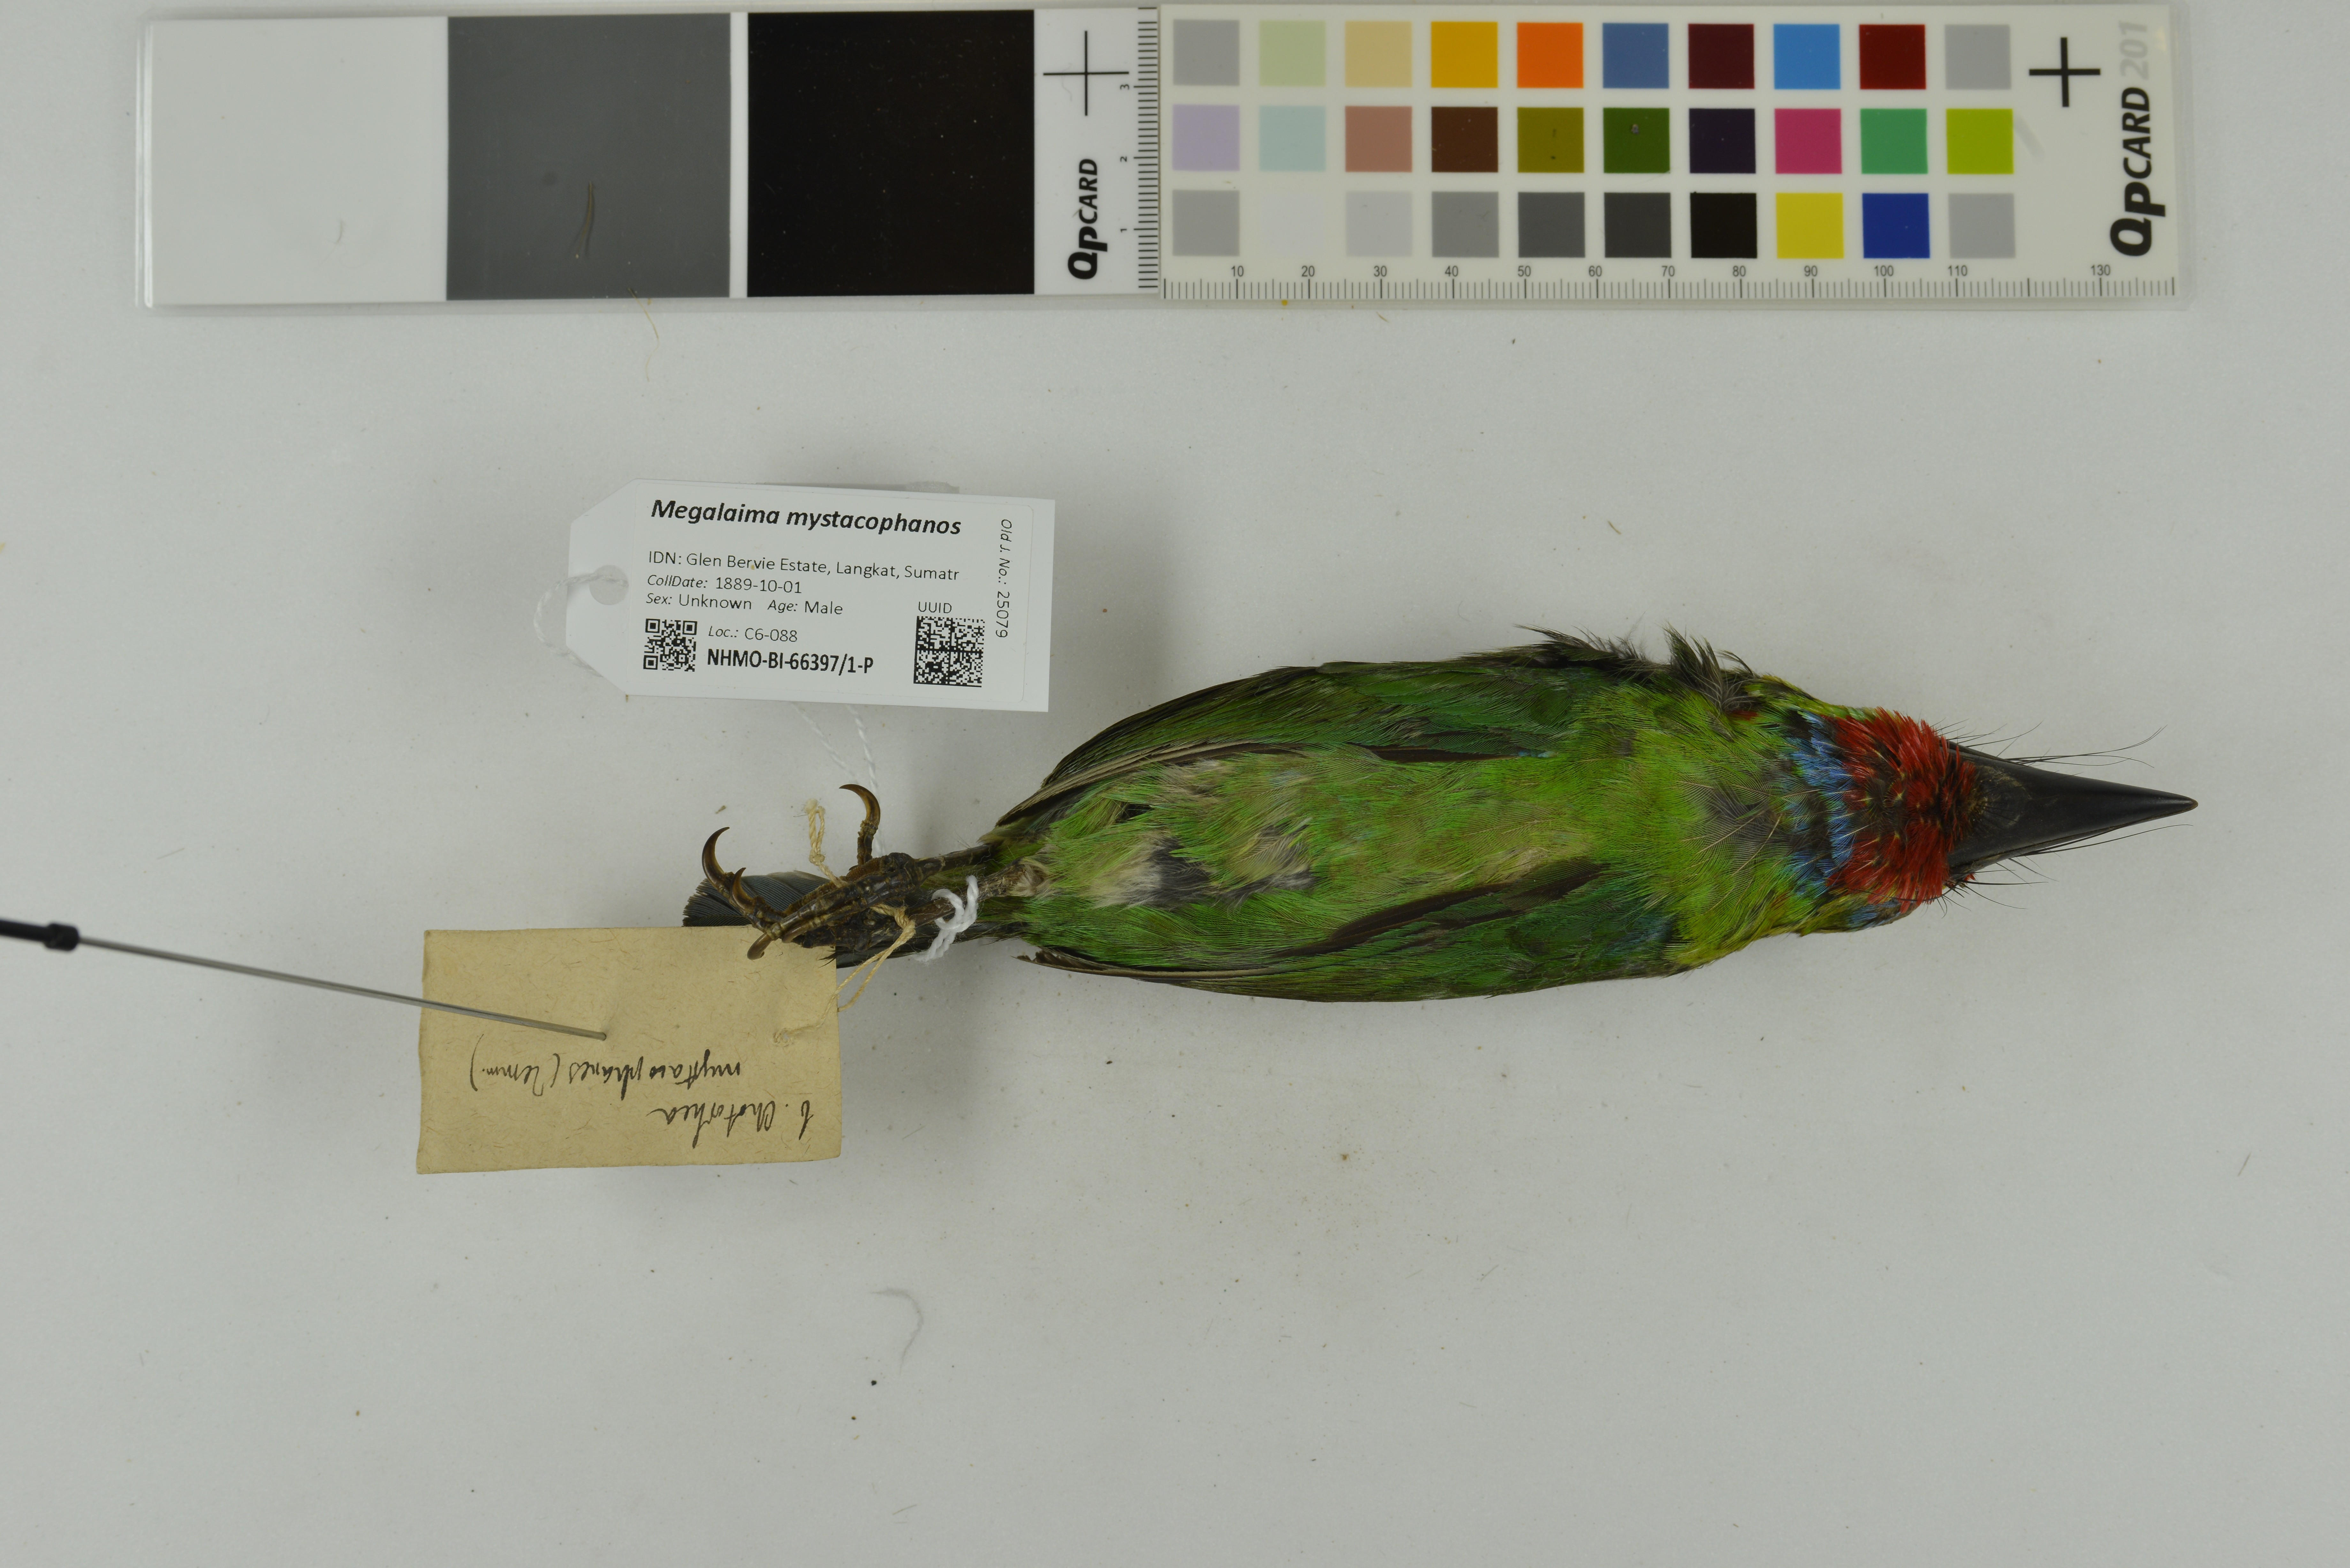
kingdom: Animalia
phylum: Chordata
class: Aves
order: Piciformes
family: Megalaimidae
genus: Psilopogon
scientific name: Psilopogon mystacophanos
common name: Red-throated barbet
